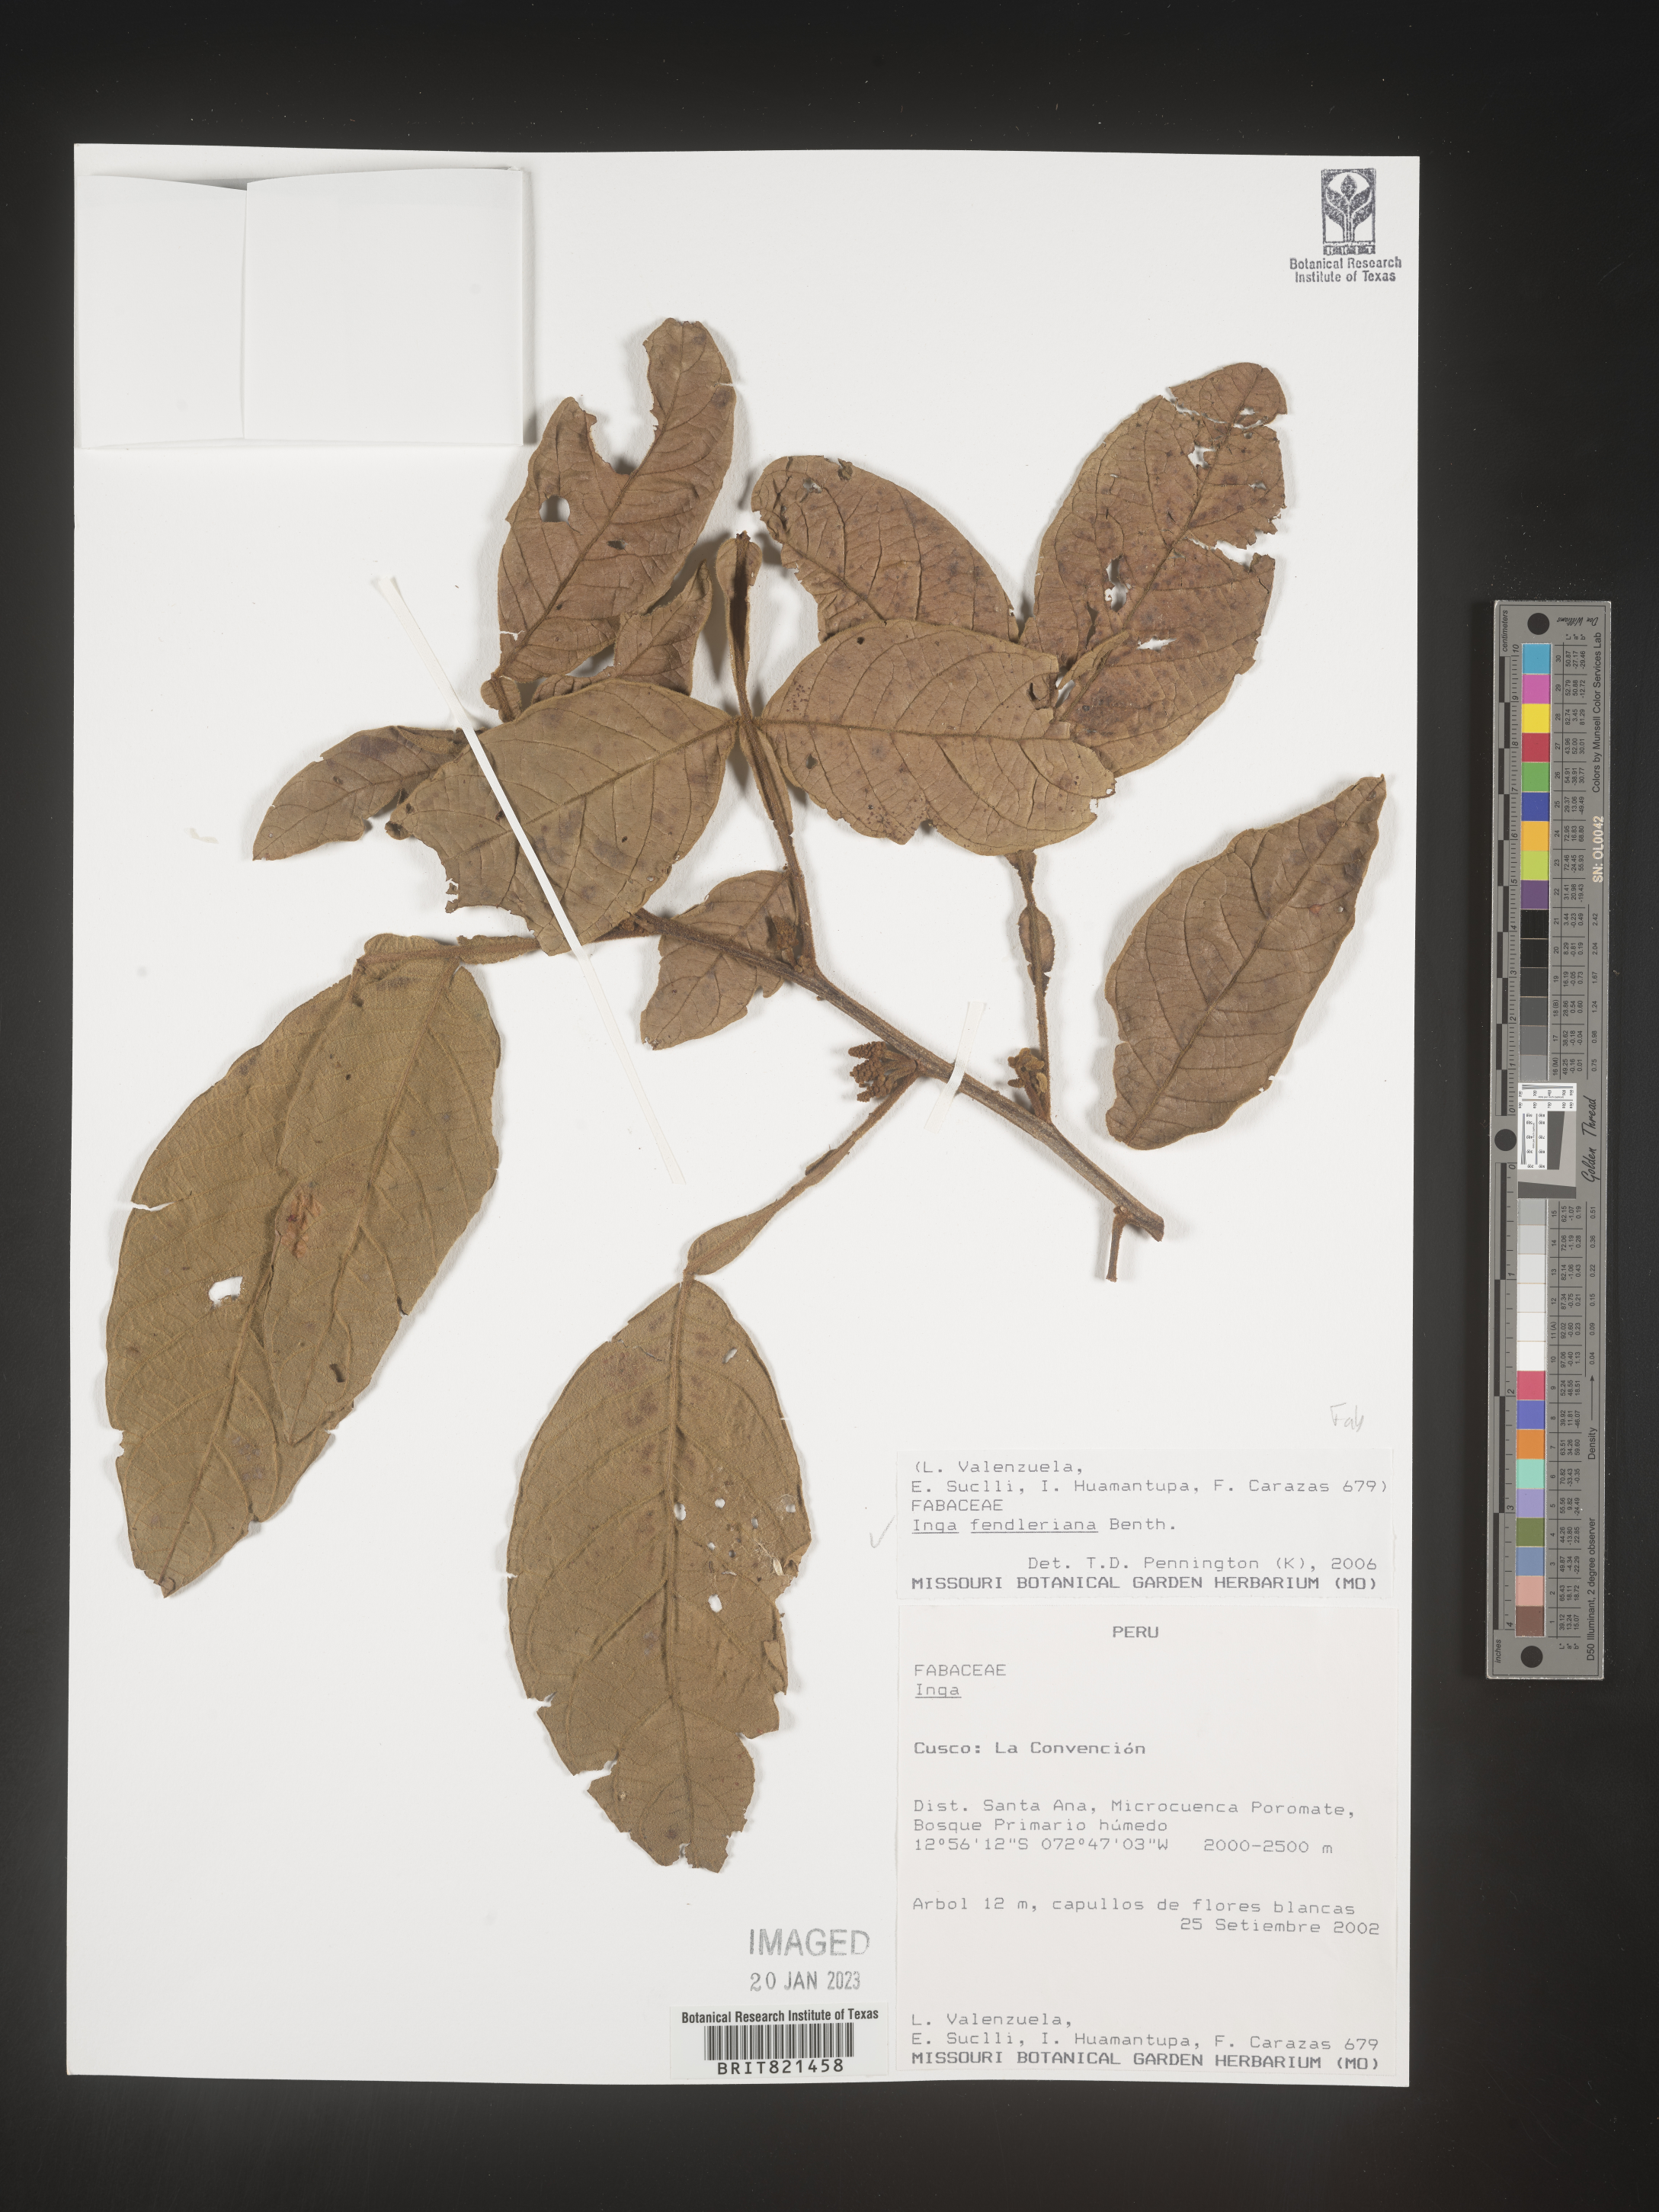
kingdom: Plantae
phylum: Tracheophyta
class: Magnoliopsida
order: Fabales
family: Fabaceae
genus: Inga
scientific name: Inga
